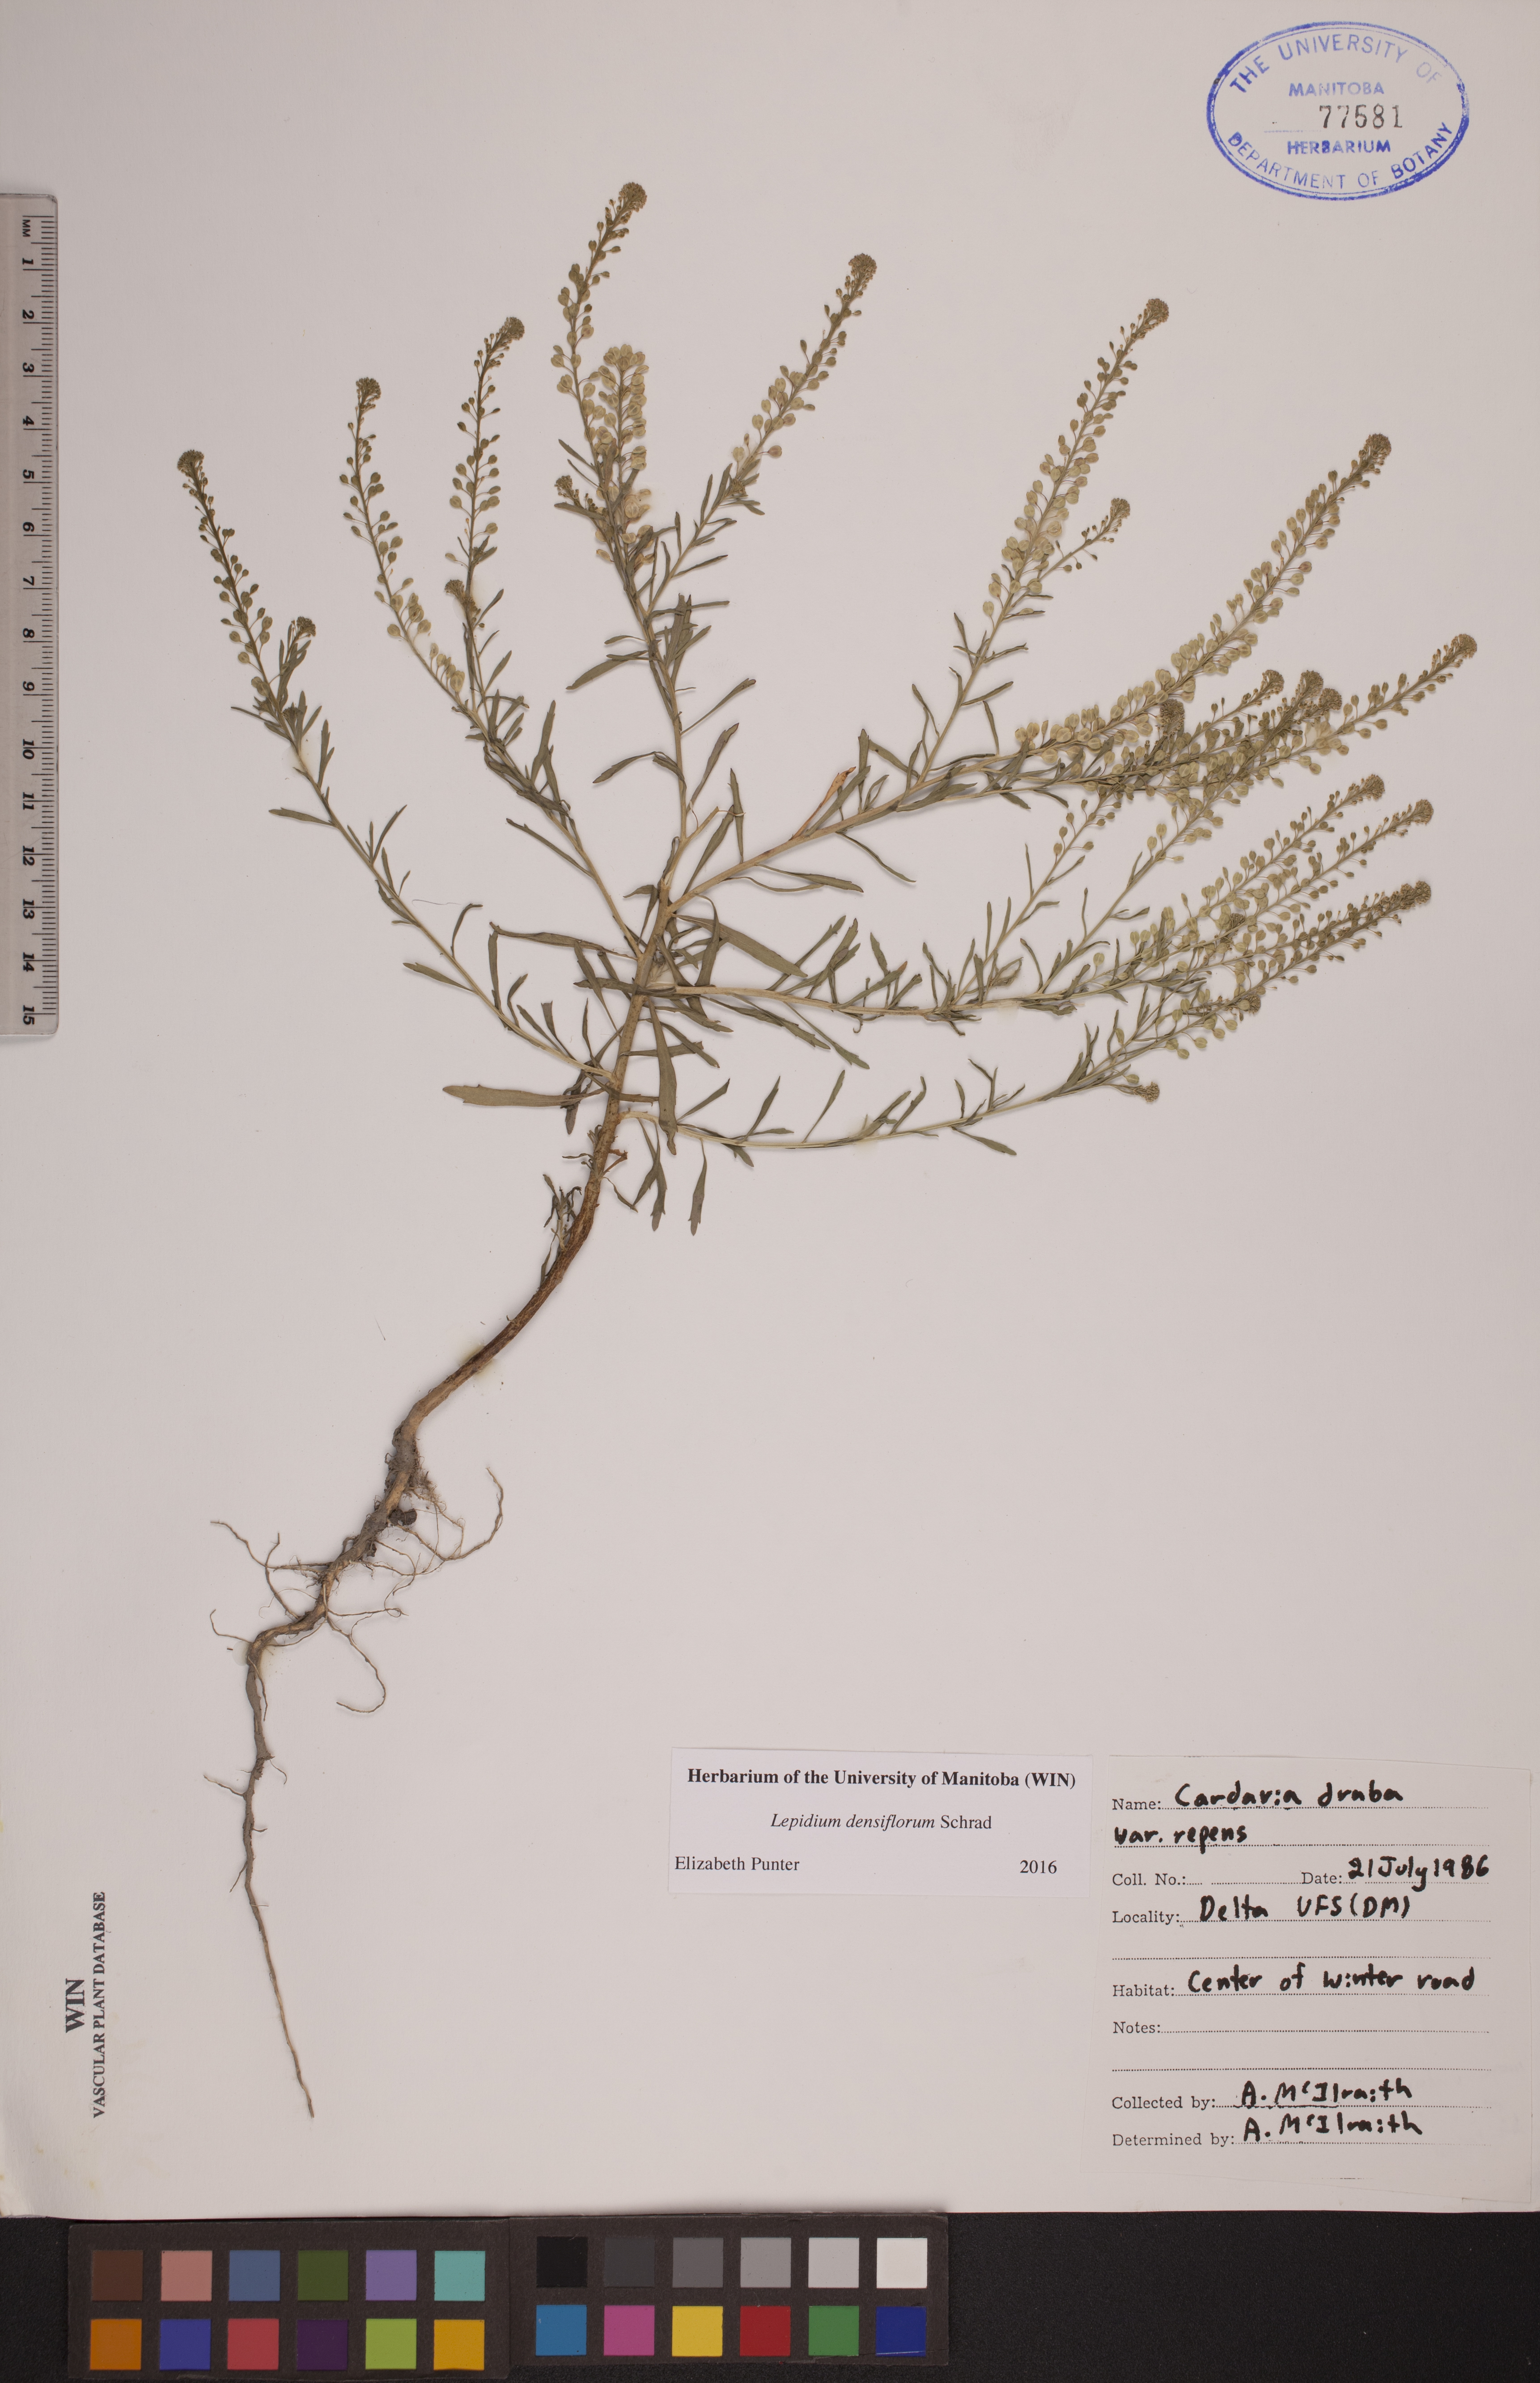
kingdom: Plantae
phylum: Tracheophyta
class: Magnoliopsida
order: Brassicales
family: Brassicaceae
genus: Lepidium
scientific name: Lepidium densiflorum
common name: Miner's pepperwort
